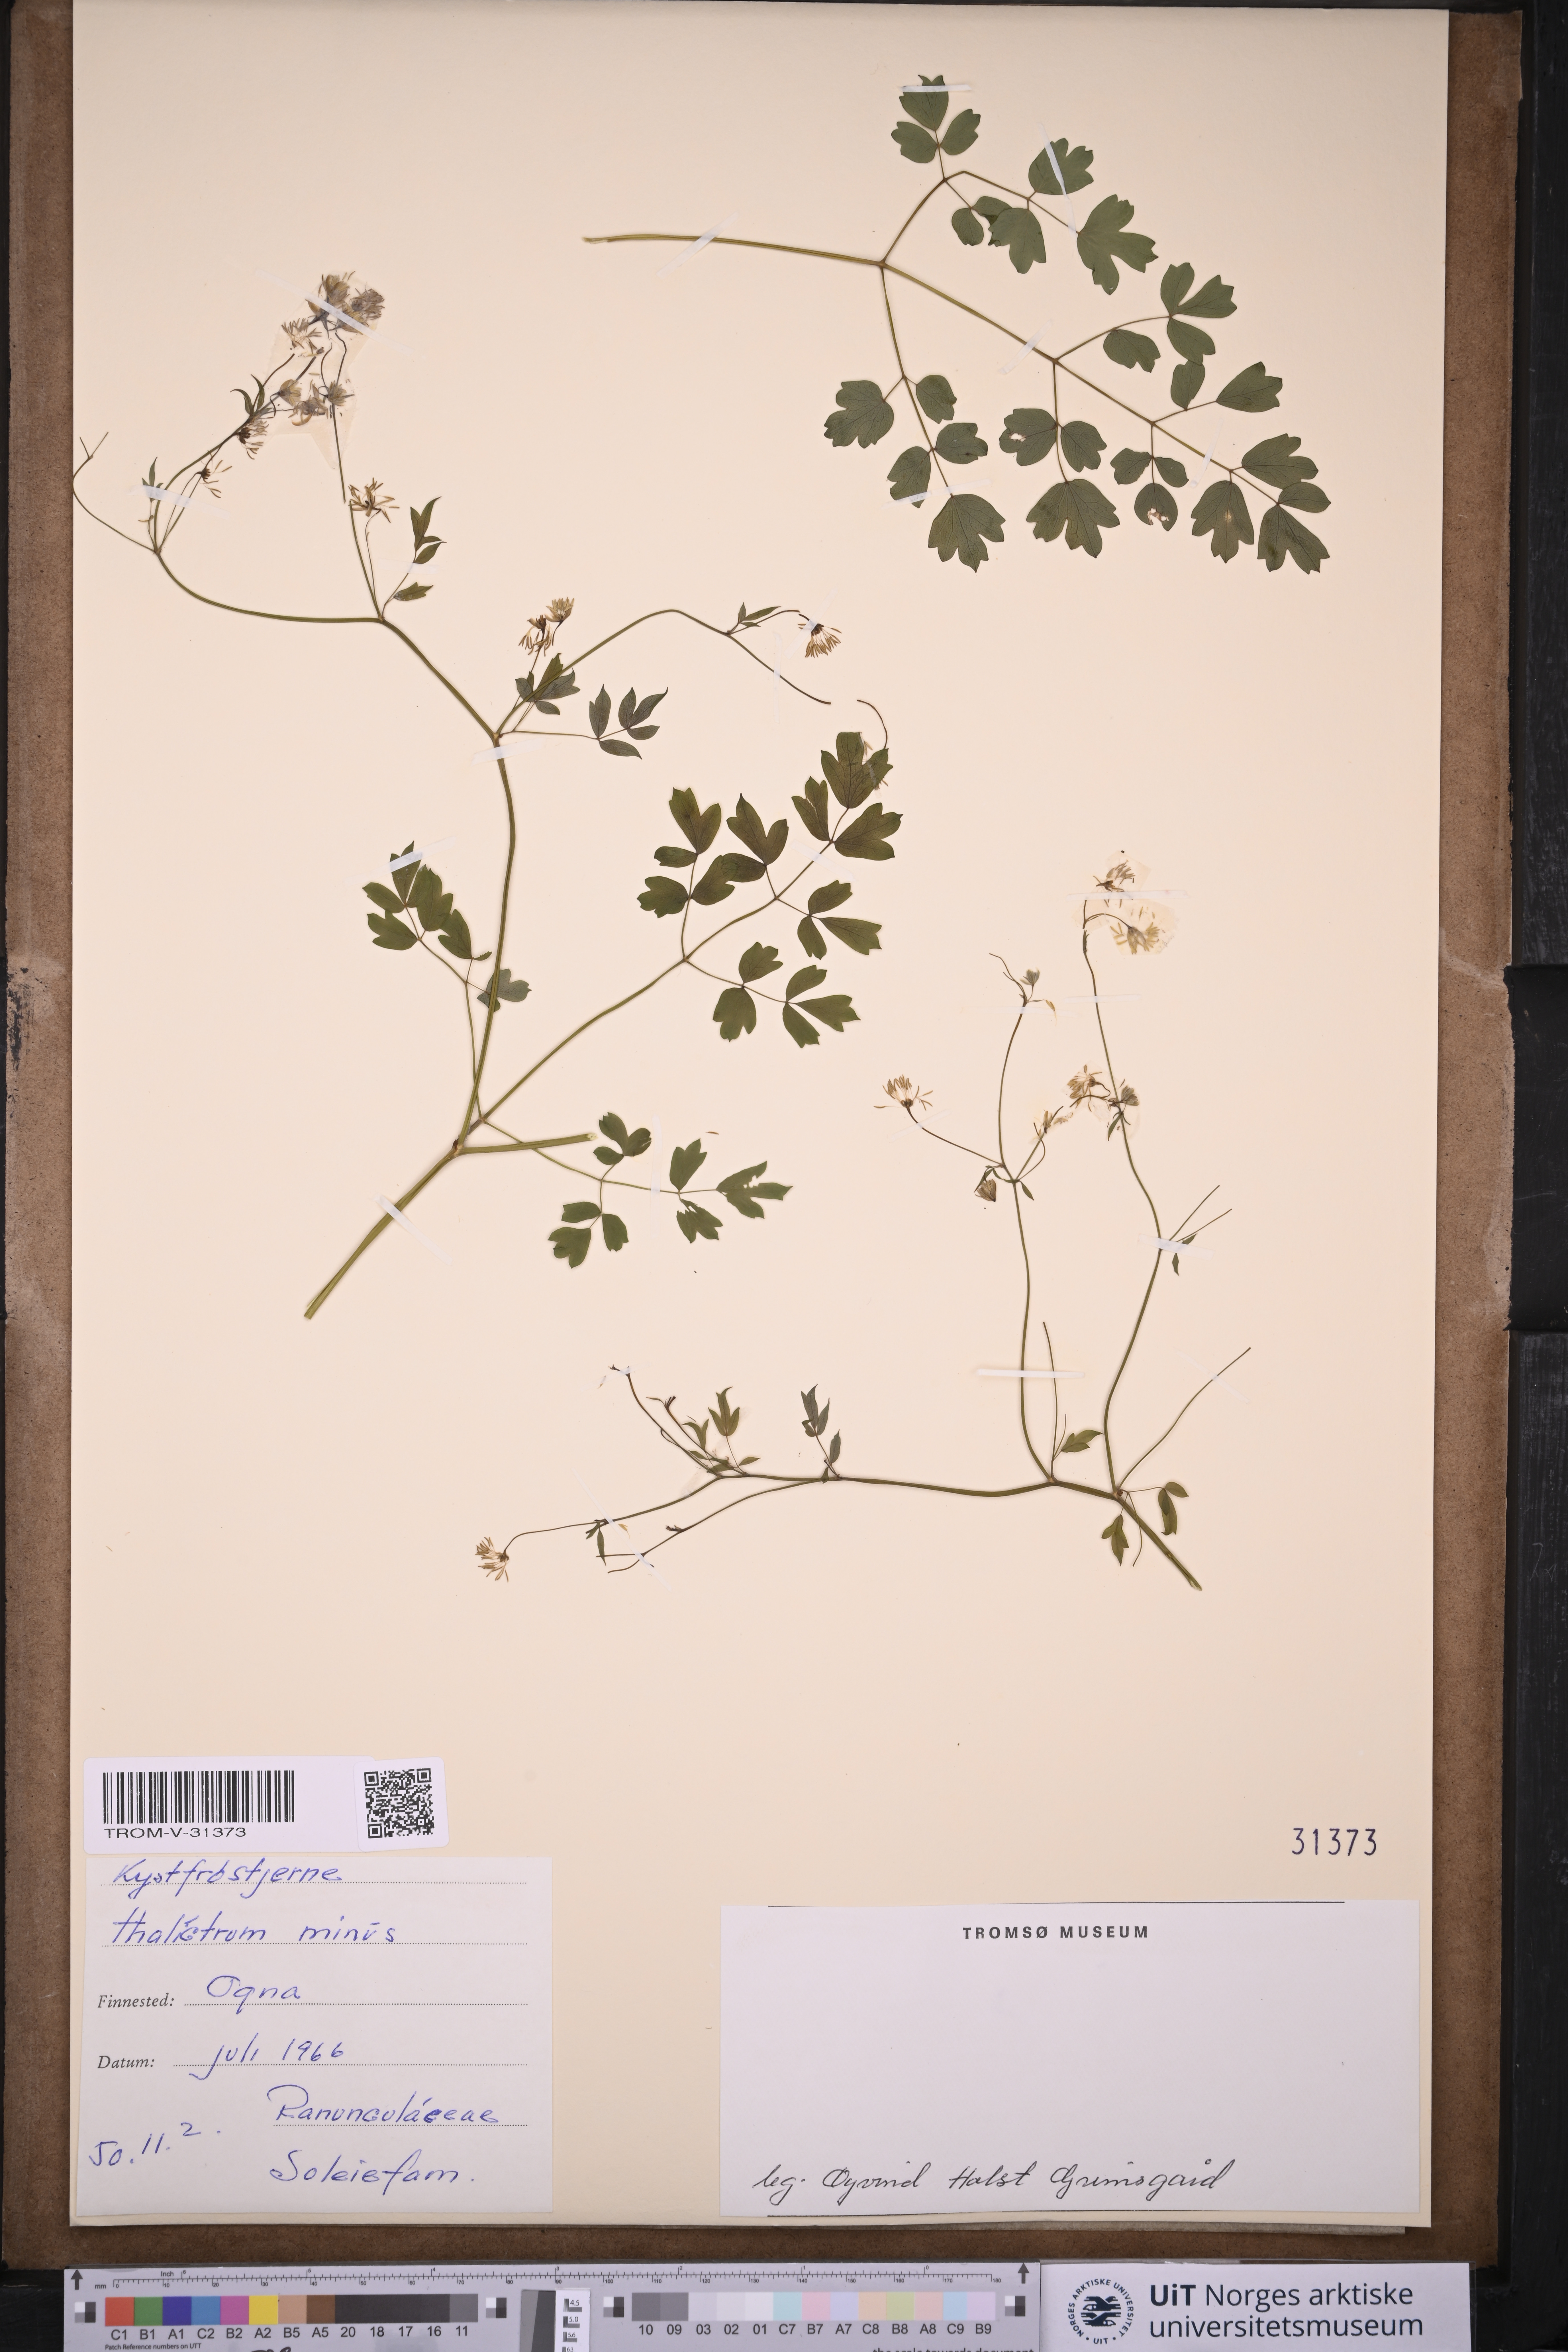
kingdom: Plantae
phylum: Tracheophyta
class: Magnoliopsida
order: Ranunculales
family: Ranunculaceae
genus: Thalictrum
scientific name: Thalictrum minus
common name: Lesser meadow-rue
